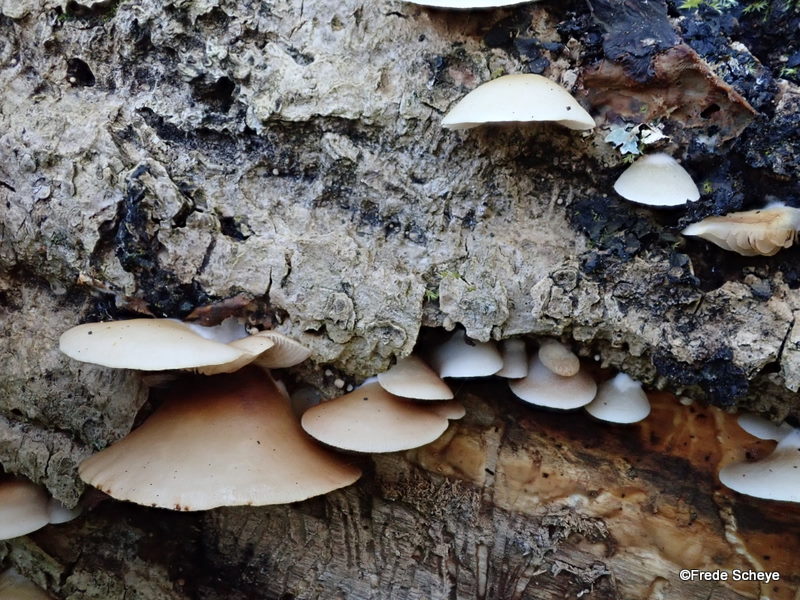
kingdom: Fungi
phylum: Basidiomycota
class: Agaricomycetes
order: Agaricales
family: Crepidotaceae
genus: Crepidotus
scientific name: Crepidotus mollis
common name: blød muslingesvamp
